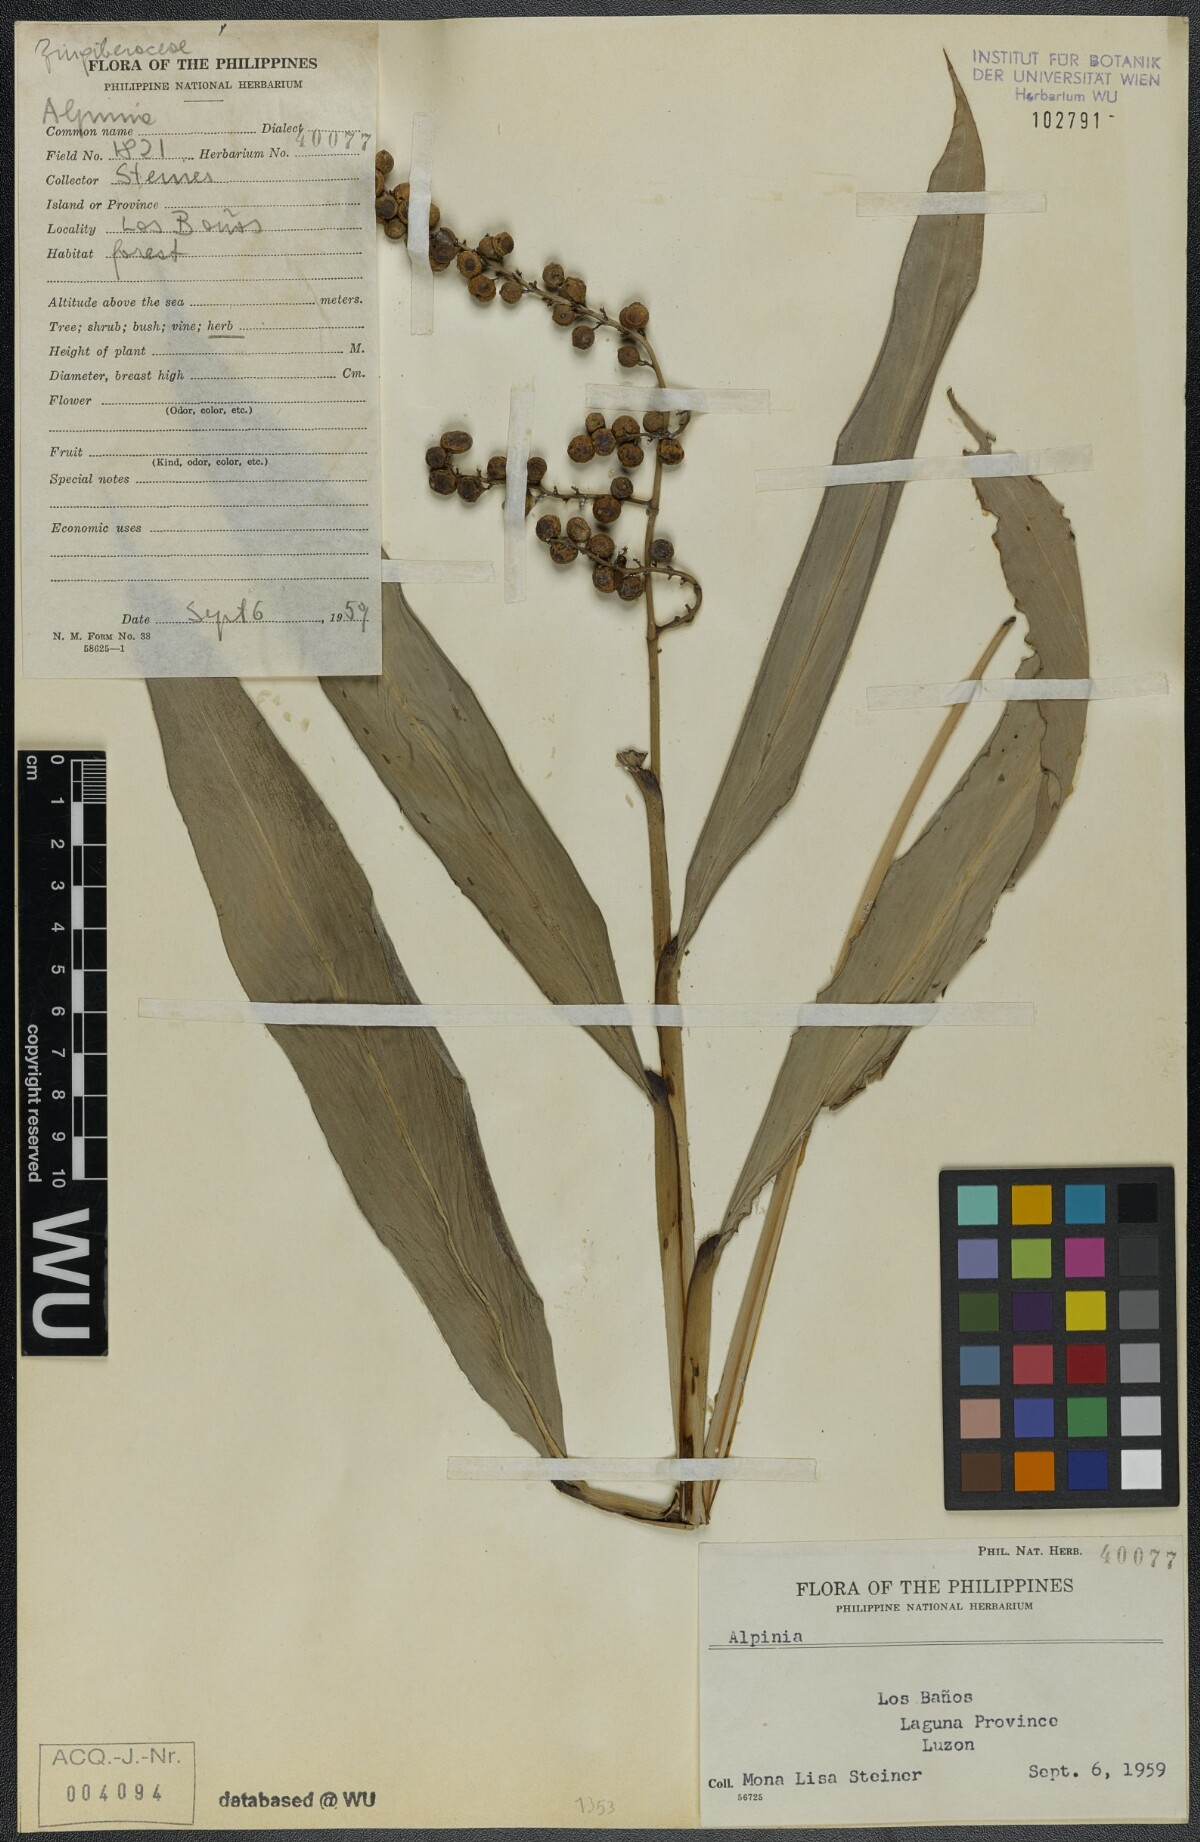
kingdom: Plantae
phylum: Tracheophyta
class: Liliopsida
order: Zingiberales
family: Zingiberaceae
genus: Alpinia
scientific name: Alpinia
